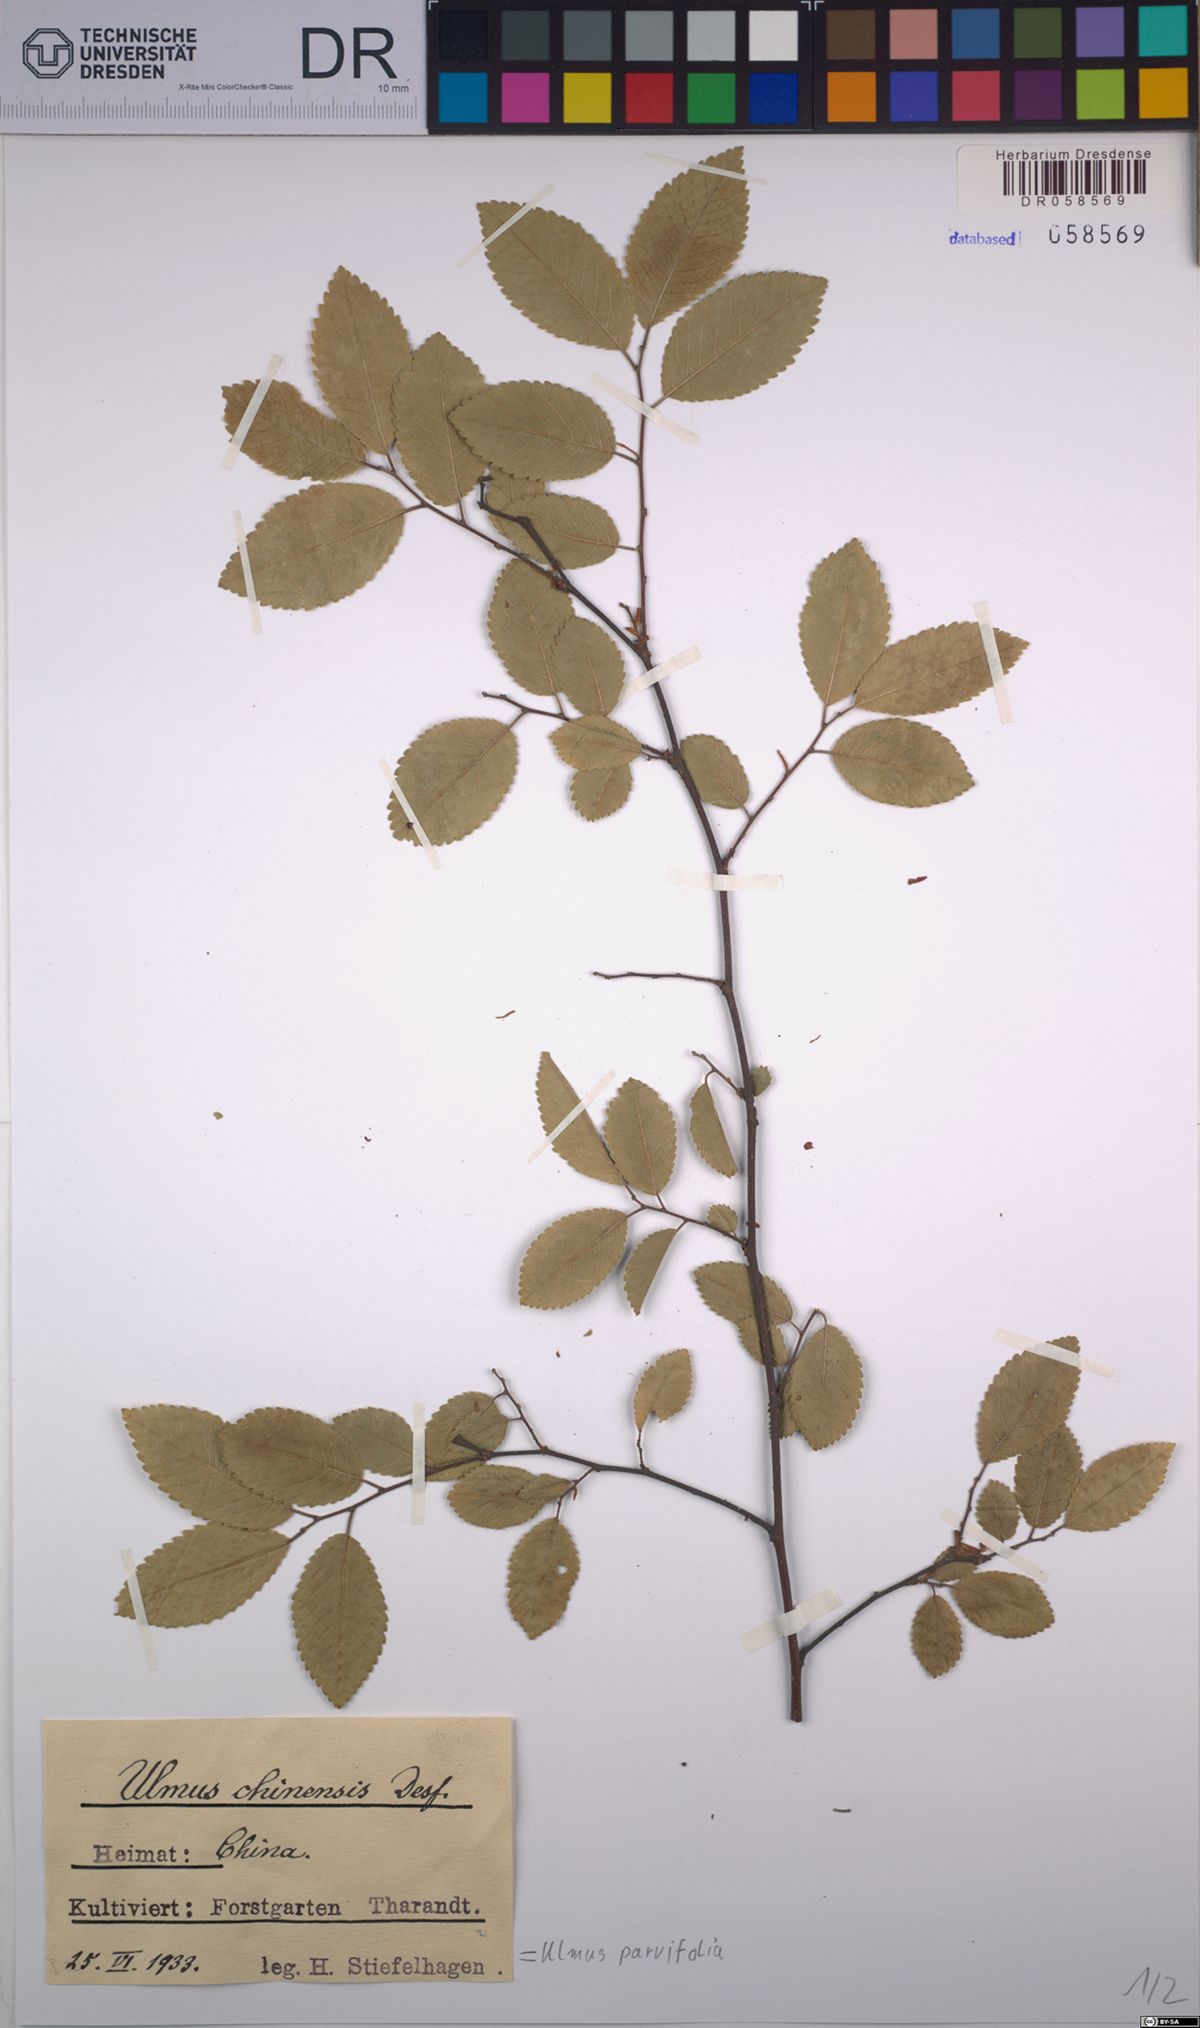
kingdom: Plantae
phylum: Tracheophyta
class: Magnoliopsida
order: Rosales
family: Ulmaceae
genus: Ulmus
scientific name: Ulmus parvifolia
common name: Chinese elm
